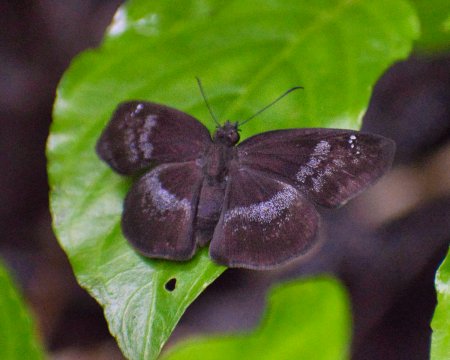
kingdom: Animalia
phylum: Arthropoda
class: Insecta
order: Lepidoptera
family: Hesperiidae
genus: Paches
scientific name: Paches loxus
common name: Glorious Blue-Skipper
